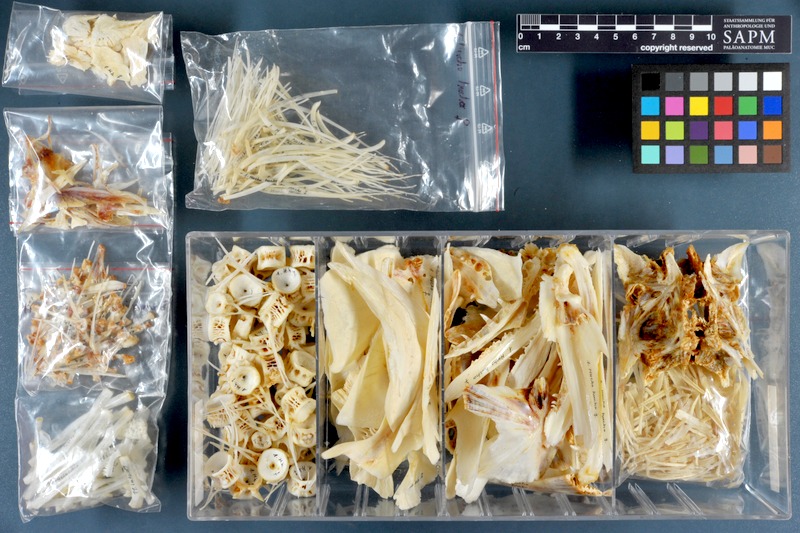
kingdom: Animalia
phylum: Chordata
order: Salmoniformes
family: Salmonidae
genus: Hucho
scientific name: Hucho hucho
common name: Huchen (danube salmon)
